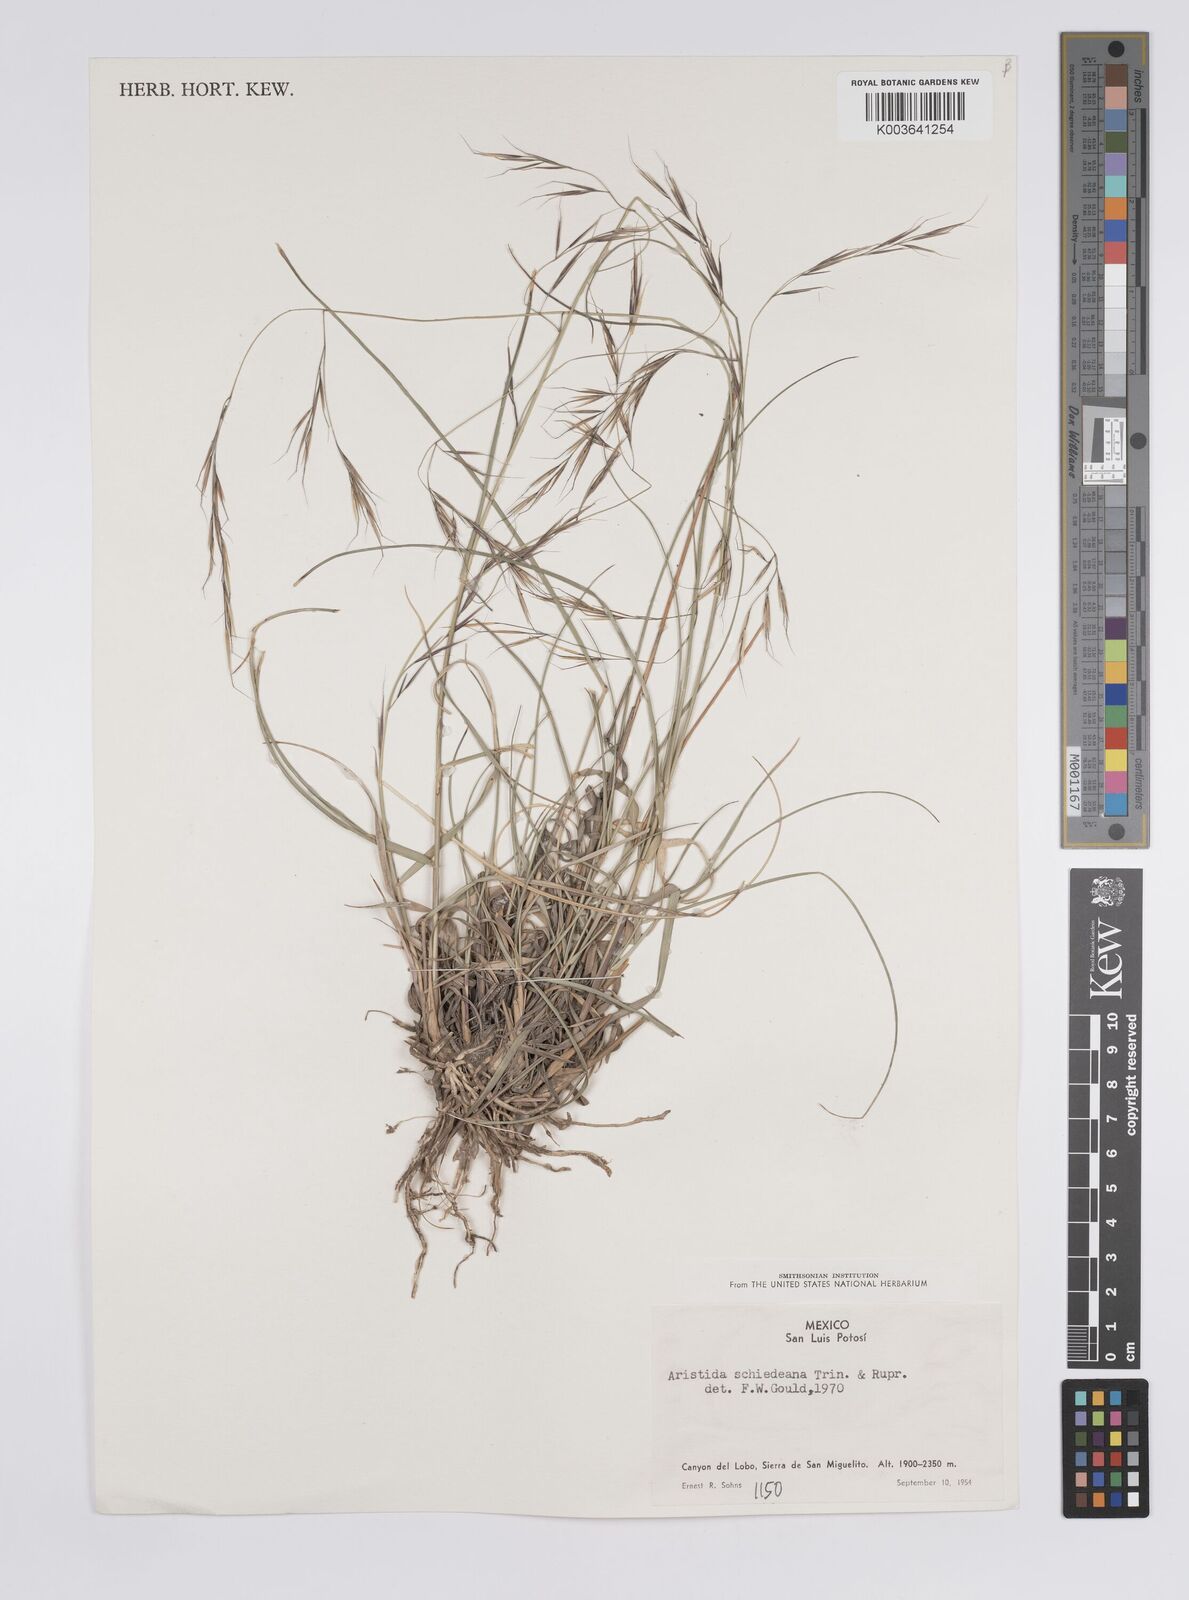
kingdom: Plantae
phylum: Tracheophyta
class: Liliopsida
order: Poales
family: Poaceae
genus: Aristida
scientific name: Aristida schiedeana
